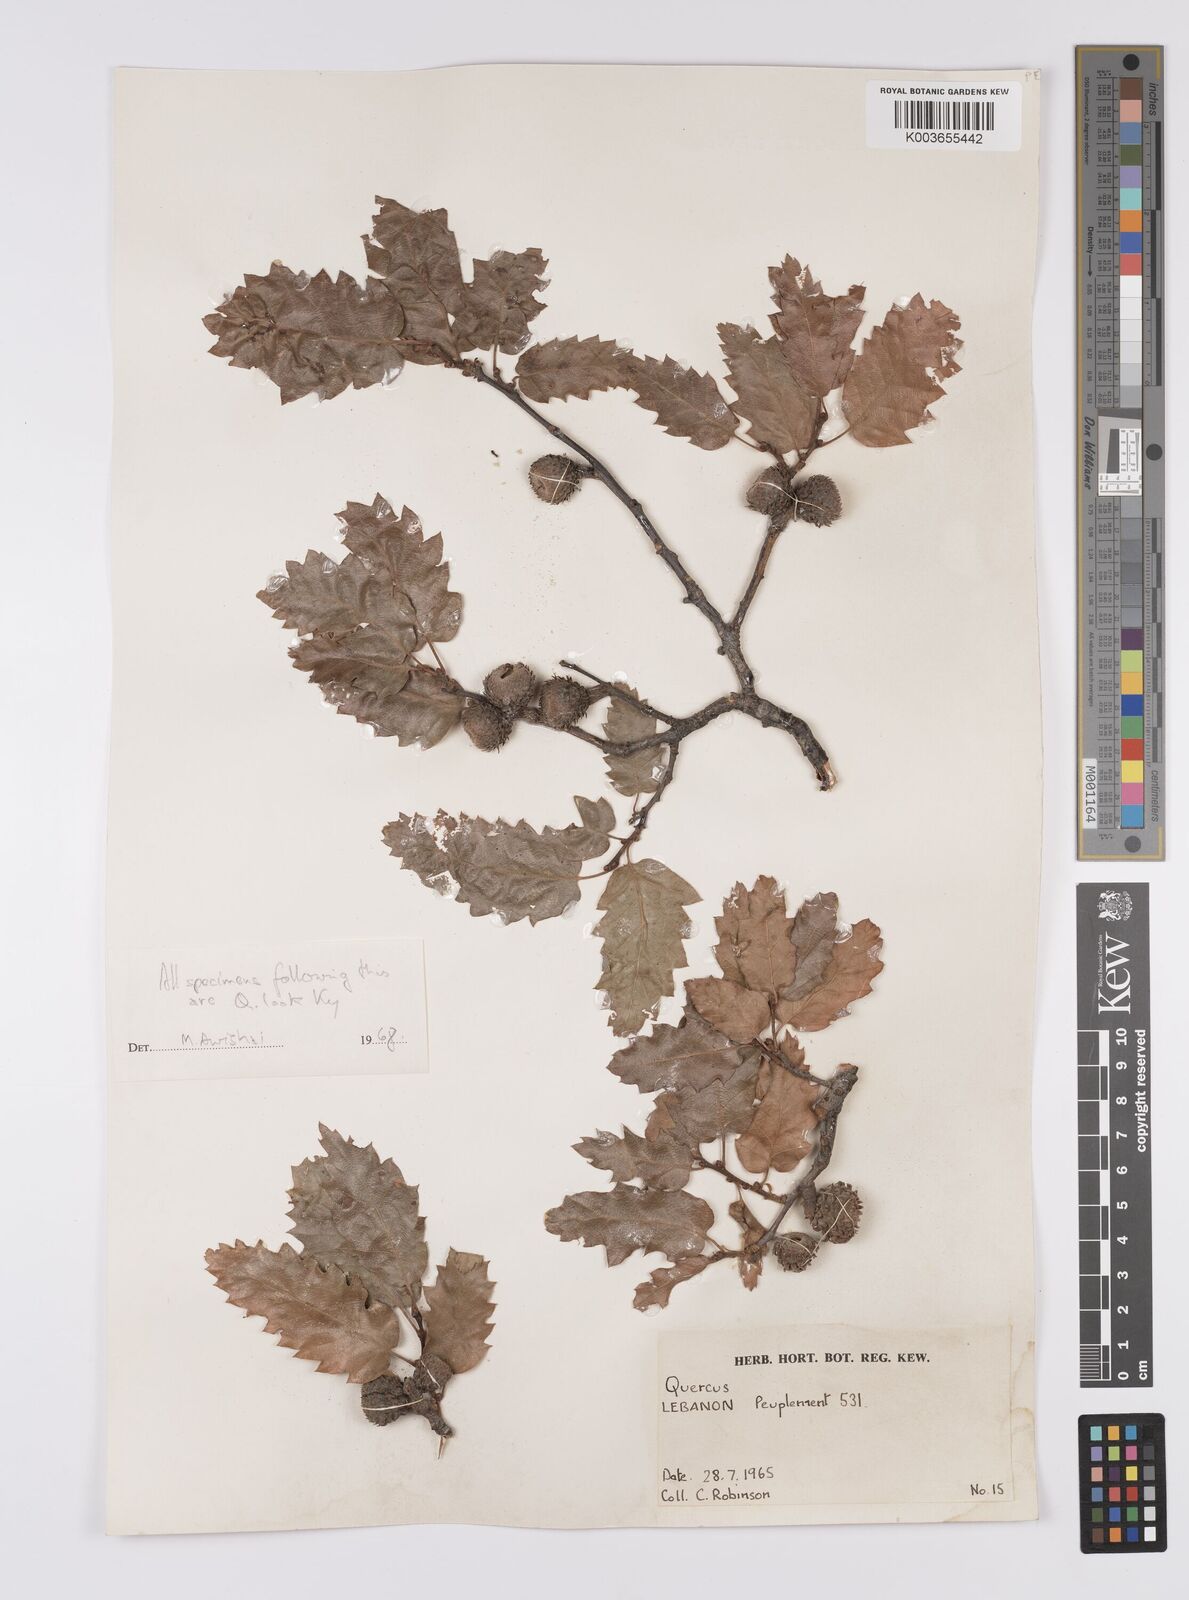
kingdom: Plantae
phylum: Tracheophyta
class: Magnoliopsida
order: Fagales
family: Fagaceae
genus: Quercus
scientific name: Quercus look
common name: Look oak
